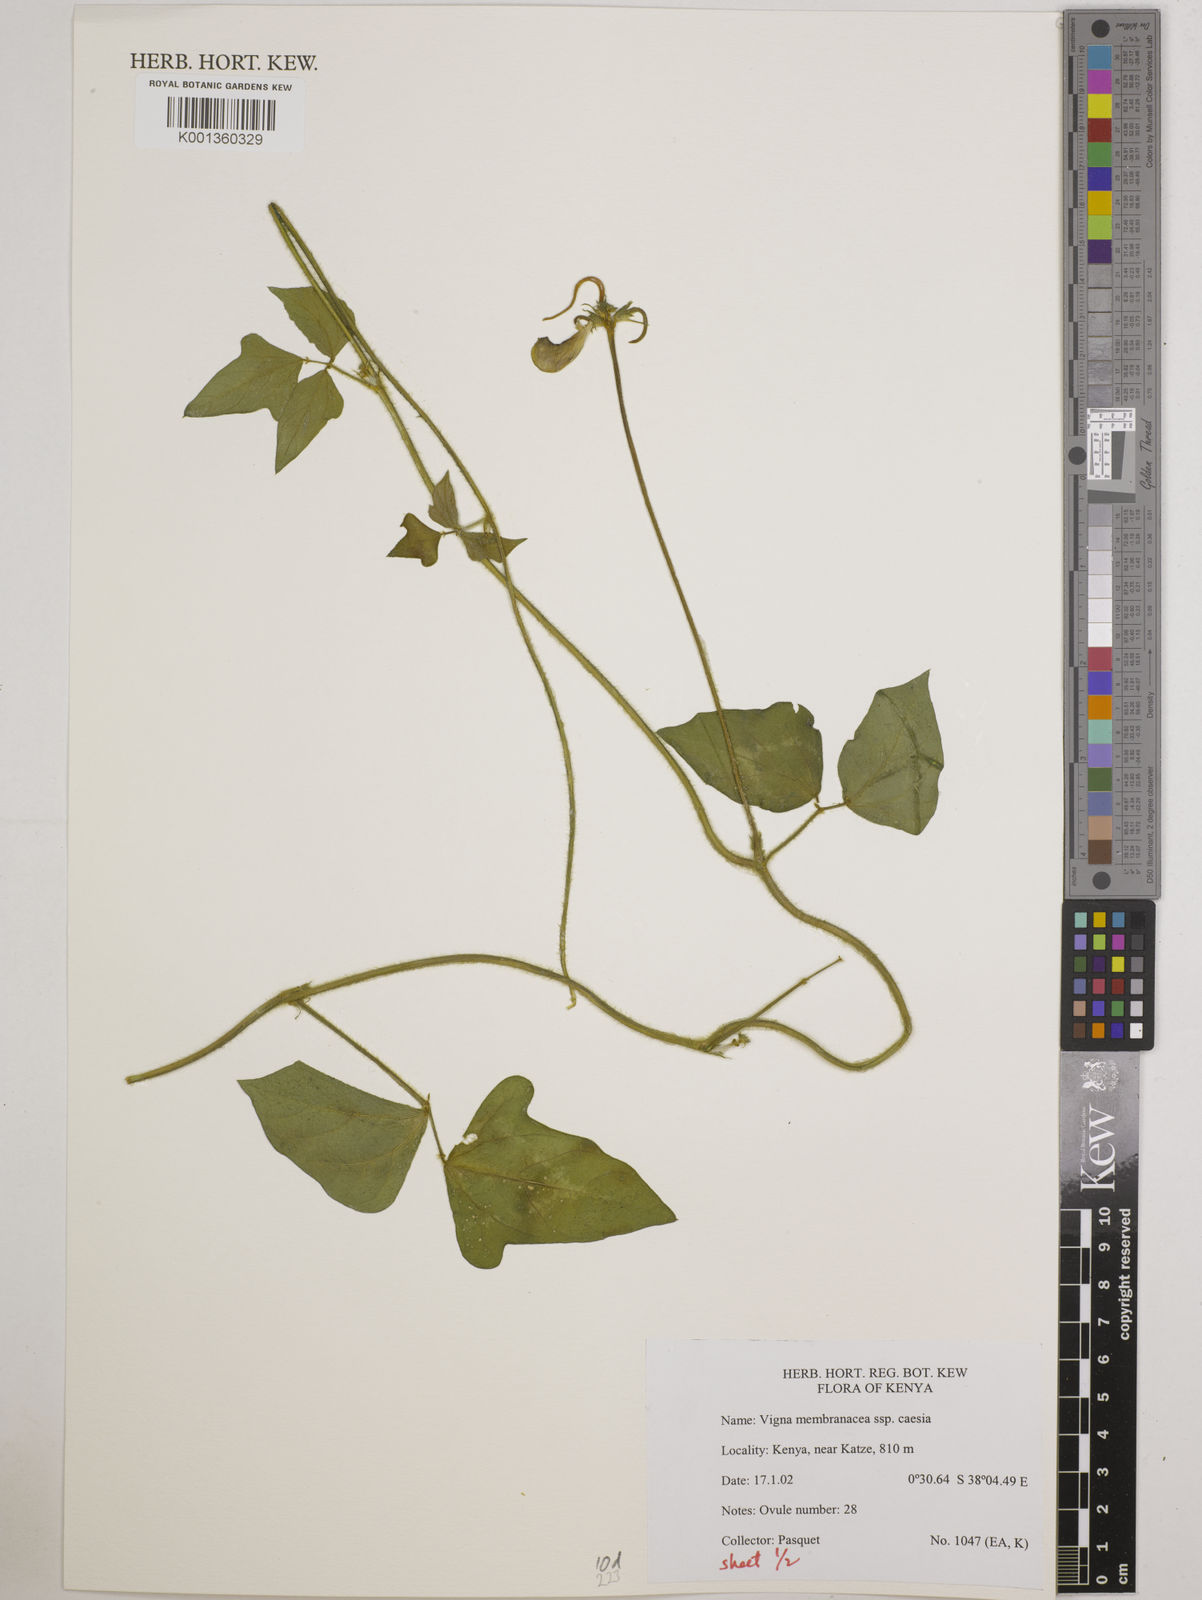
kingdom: Plantae
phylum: Tracheophyta
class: Magnoliopsida
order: Fabales
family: Fabaceae
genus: Vigna
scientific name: Vigna
